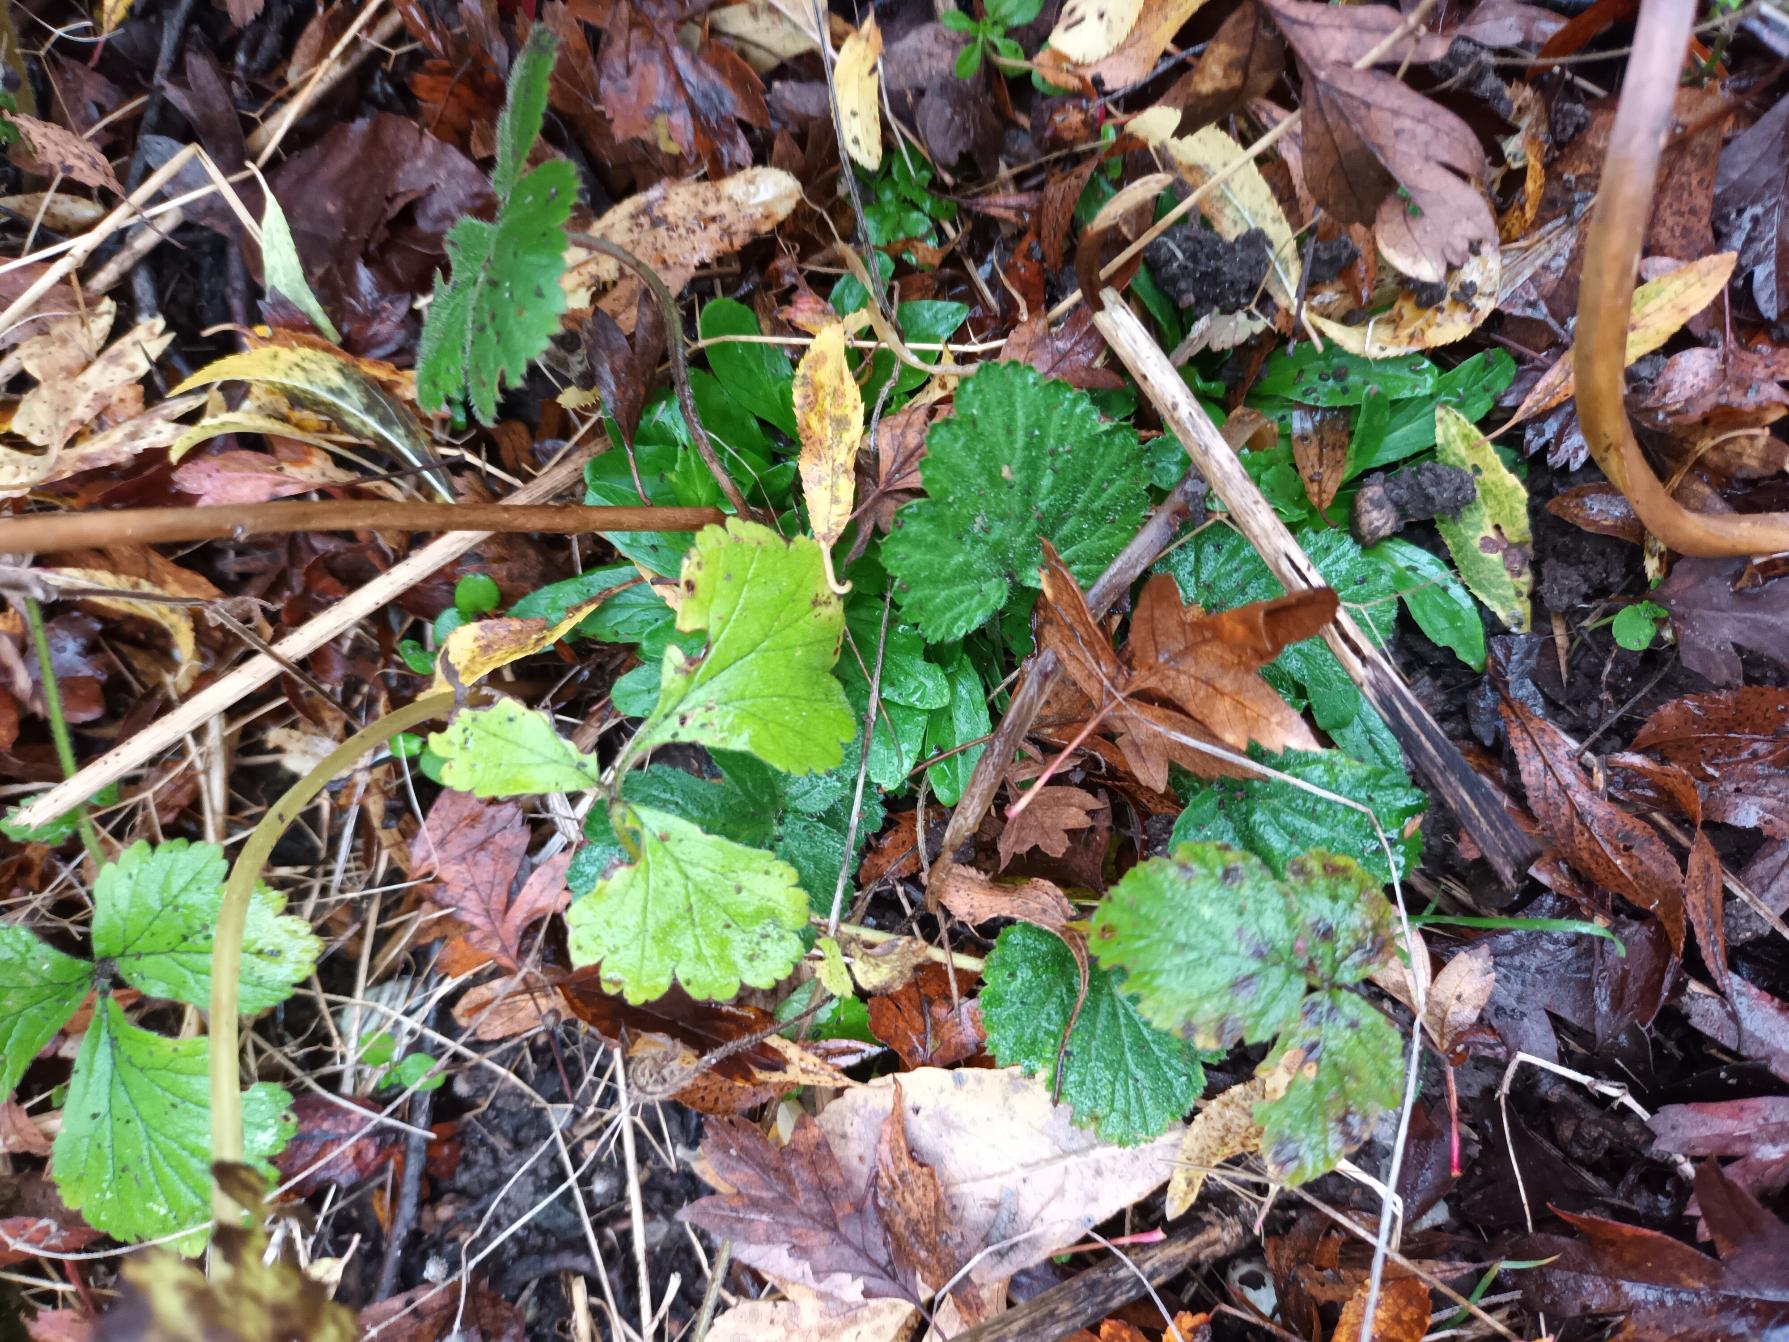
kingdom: Plantae
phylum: Tracheophyta
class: Magnoliopsida
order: Rosales
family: Rosaceae
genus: Geum
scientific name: Geum urbanum
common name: Feber-nellikerod
